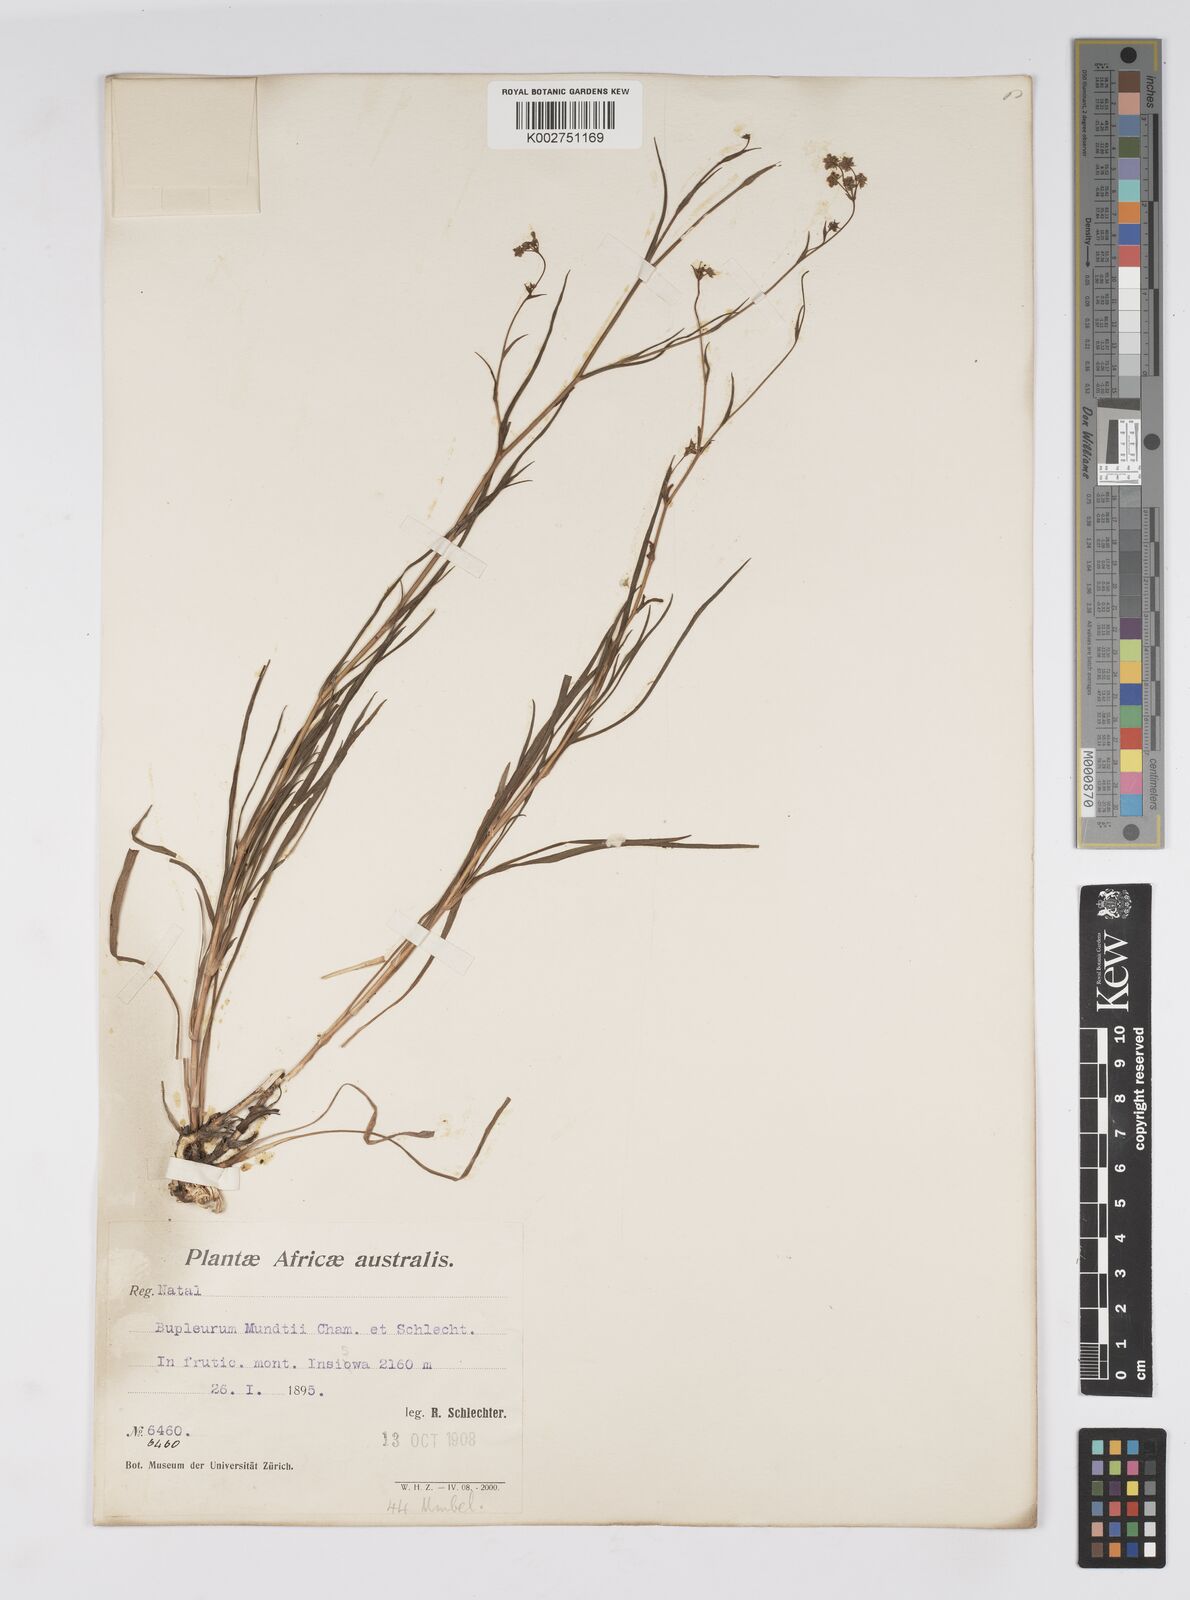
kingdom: Plantae
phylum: Tracheophyta
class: Magnoliopsida
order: Apiales
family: Apiaceae
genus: Bupleurum
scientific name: Bupleurum mundii
